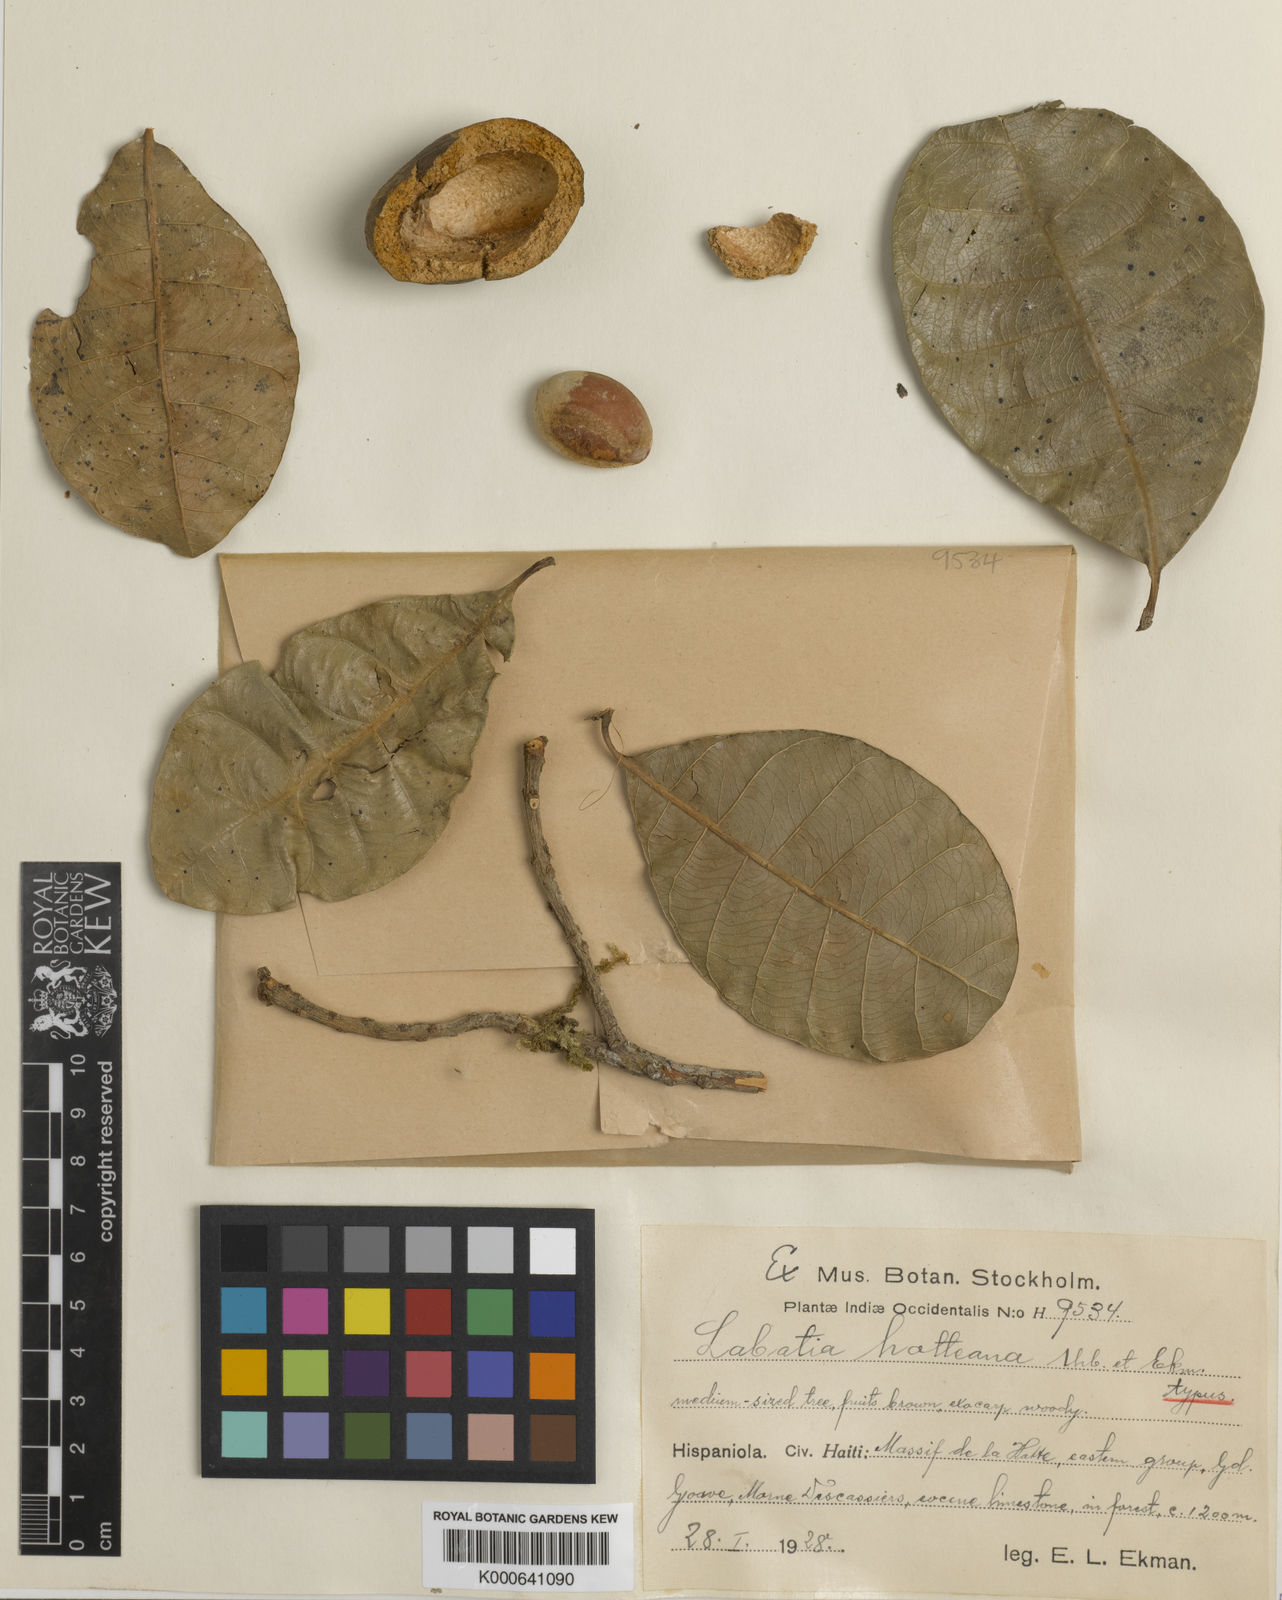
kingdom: Plantae
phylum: Tracheophyta
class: Magnoliopsida
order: Ericales
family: Sapotaceae
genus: Pouteria
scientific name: Pouteria hotteana
